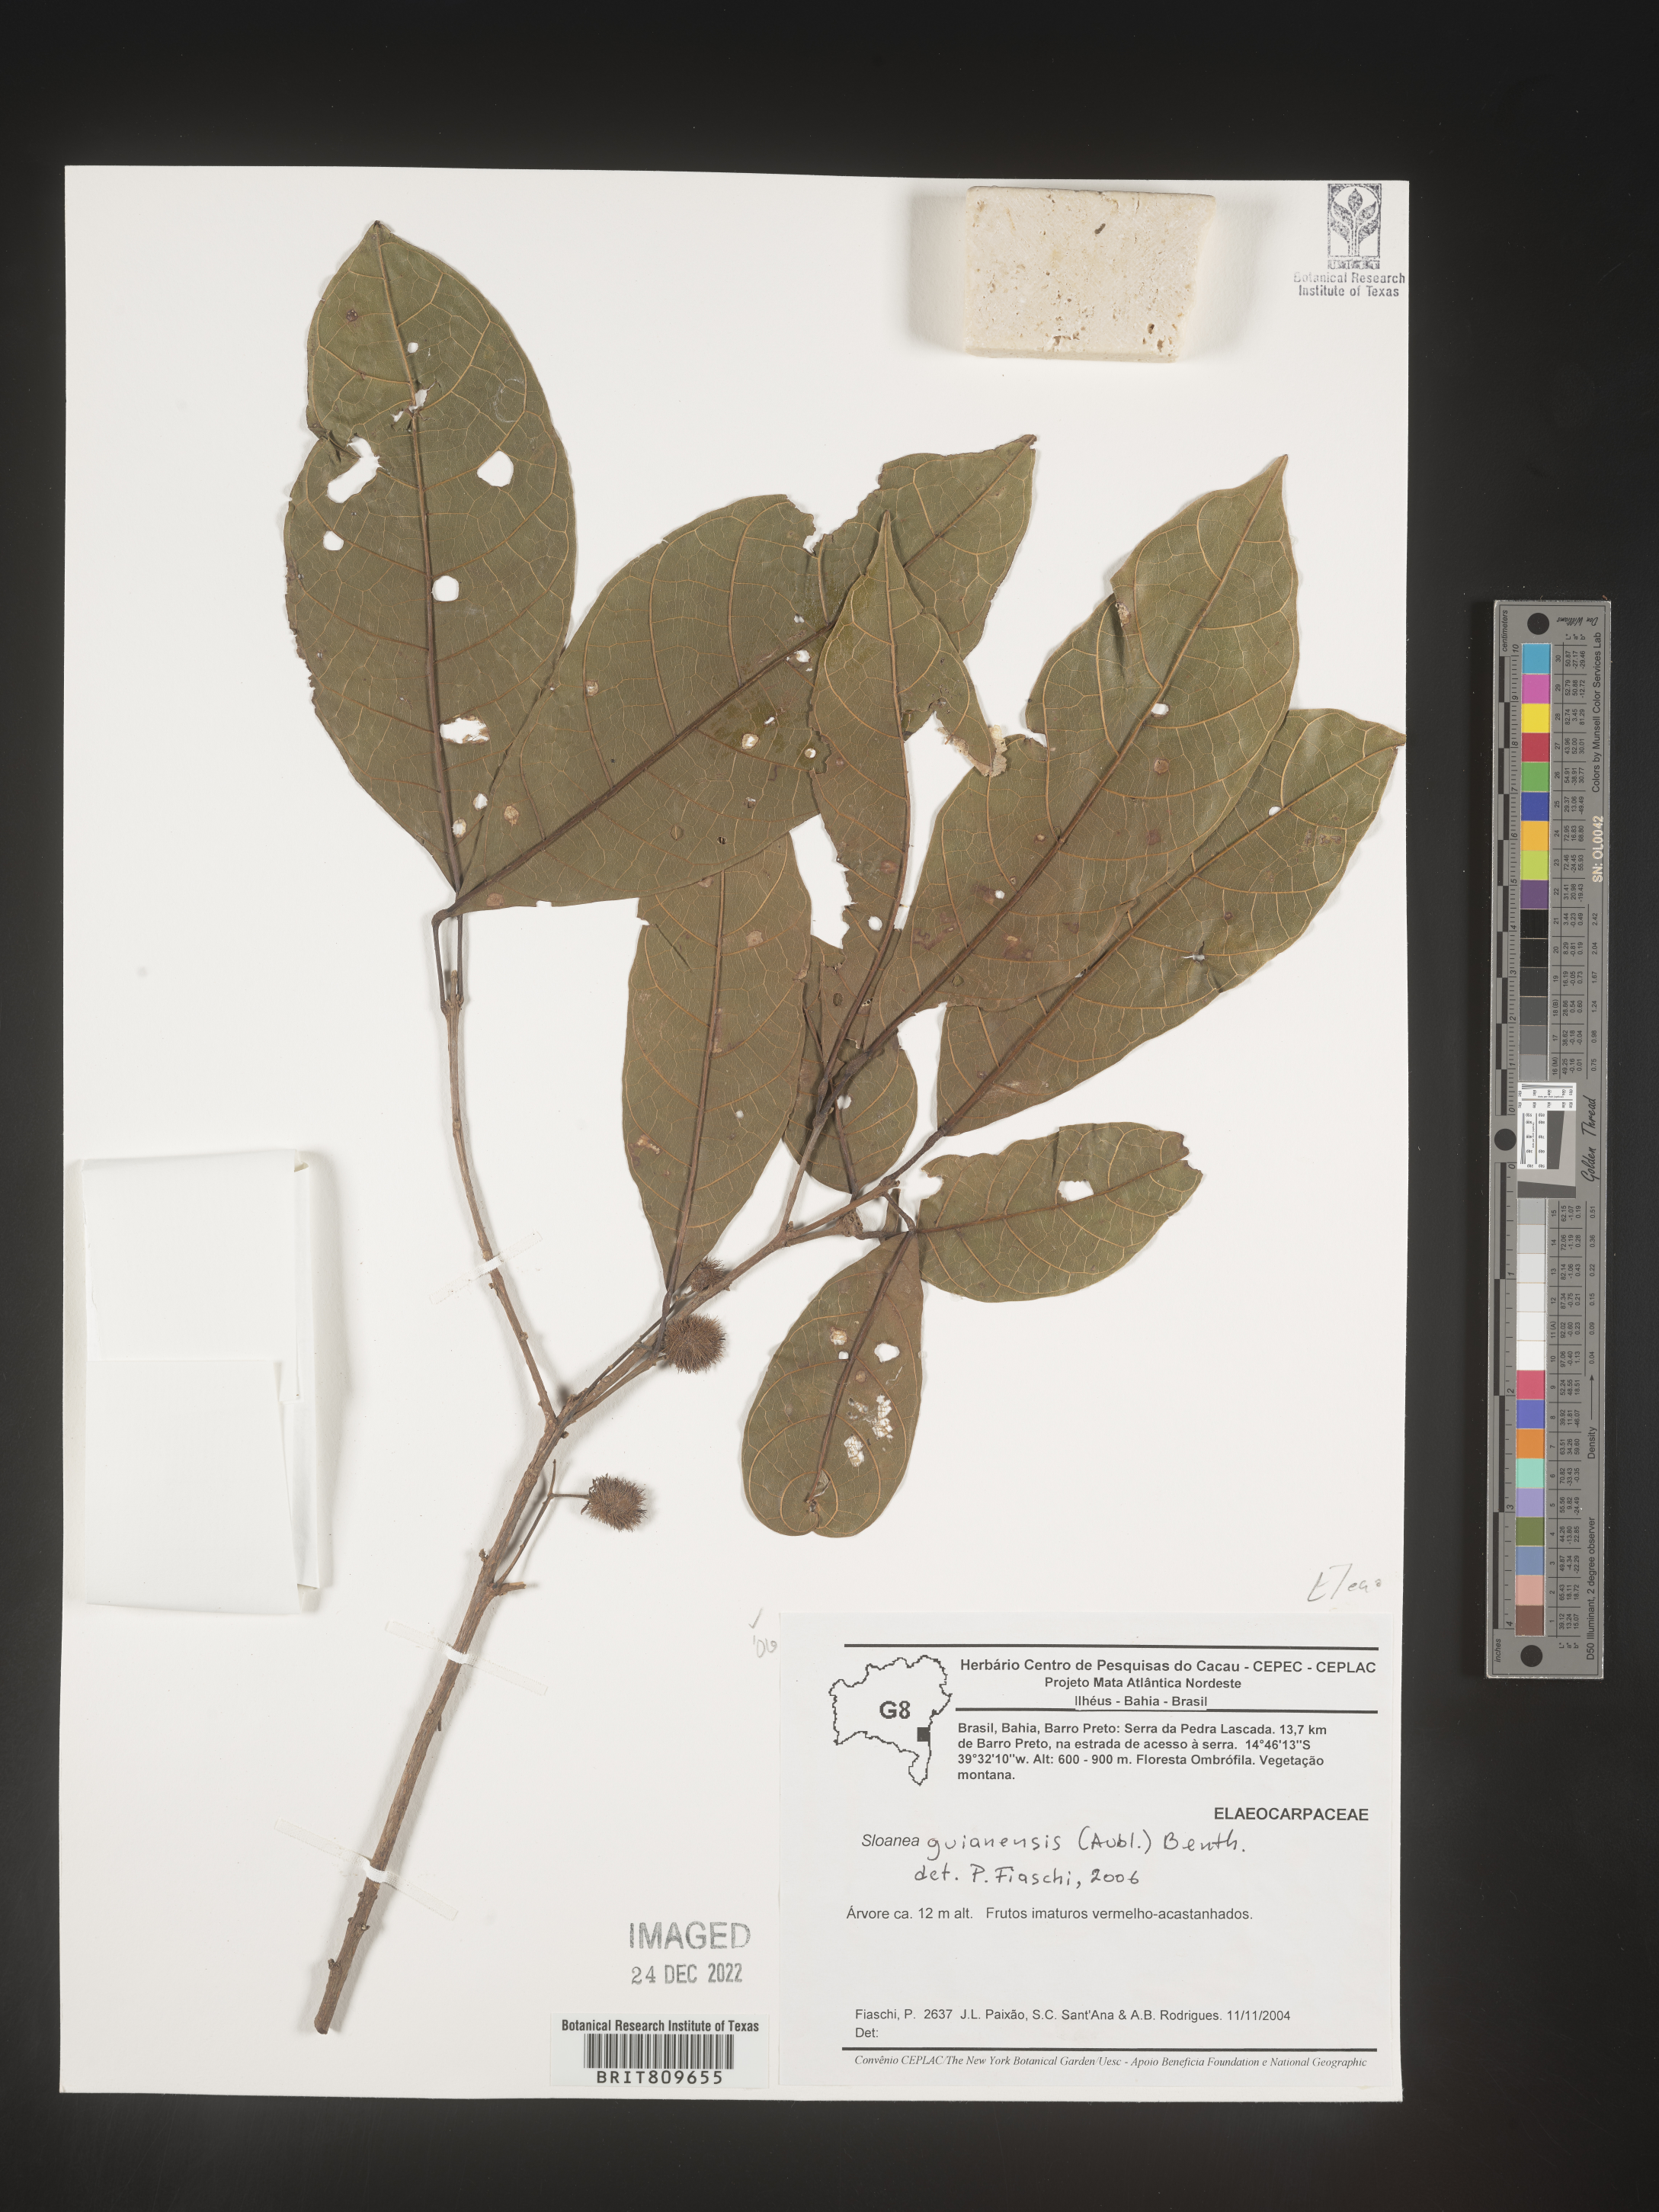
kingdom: Plantae
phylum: Tracheophyta
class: Magnoliopsida
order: Oxalidales
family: Elaeocarpaceae
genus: Sloanea
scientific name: Sloanea
